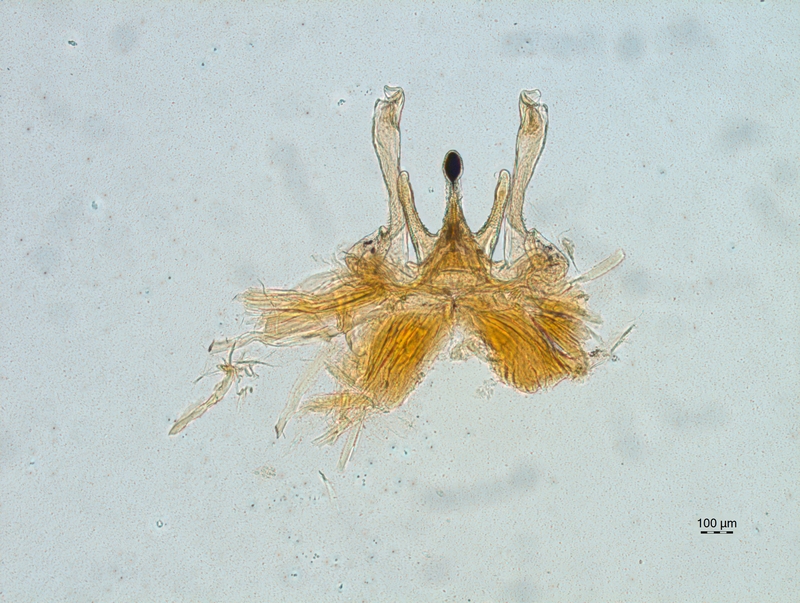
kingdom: Animalia
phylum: Arthropoda
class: Diplopoda
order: Chordeumatida
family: Chordeumatidae
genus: Chordeuma
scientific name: Chordeuma sylvestre
